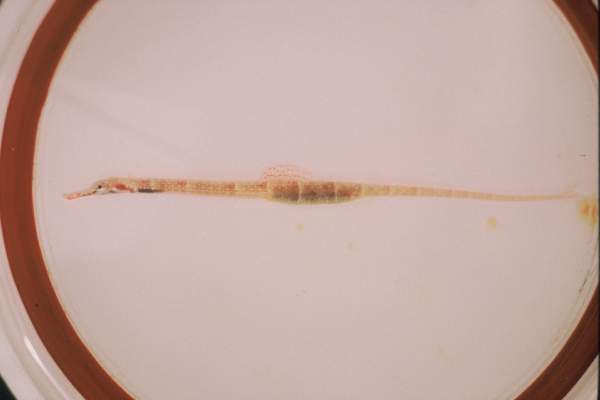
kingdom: Animalia
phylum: Chordata
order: Syngnathiformes
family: Syngnathidae
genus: Corythoichthys
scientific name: Corythoichthys nigripectus
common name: Black-breasted pipefish
